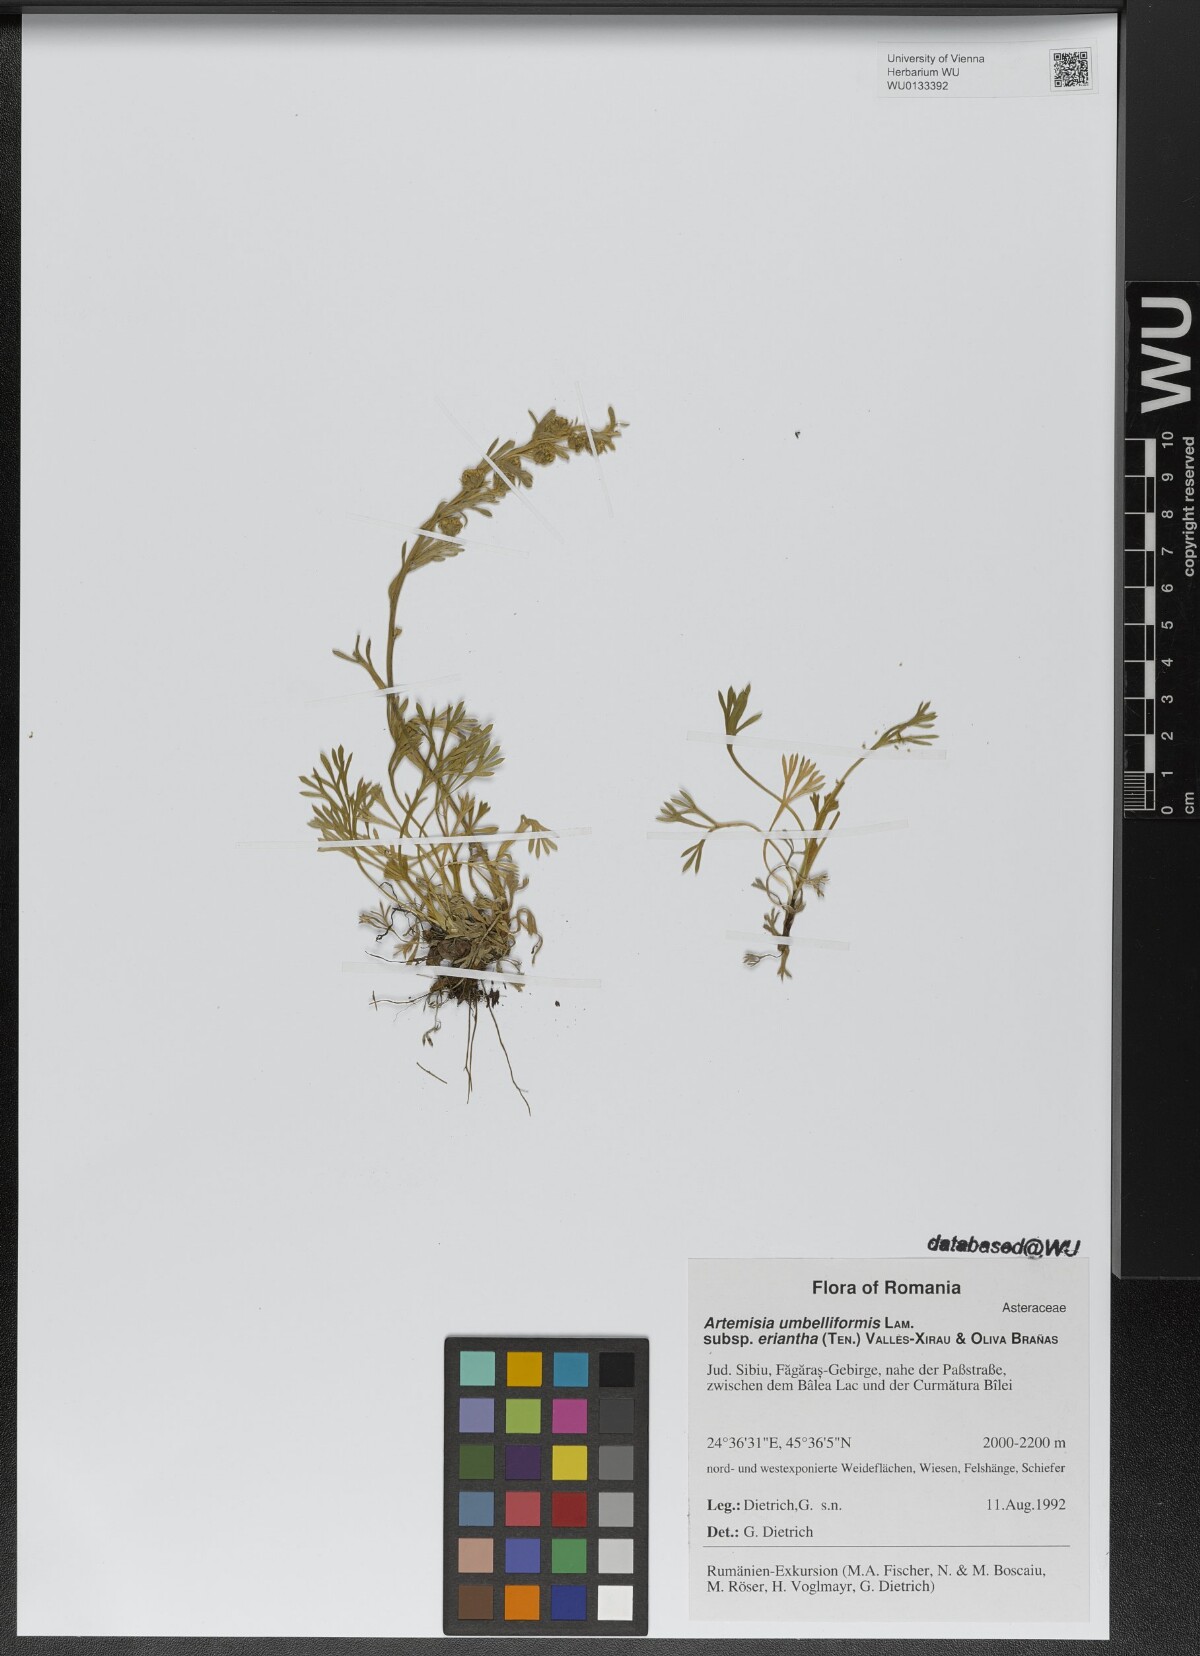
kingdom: Plantae
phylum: Tracheophyta
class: Magnoliopsida
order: Asterales
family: Asteraceae
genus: Artemisia
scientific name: Artemisia eriantha
